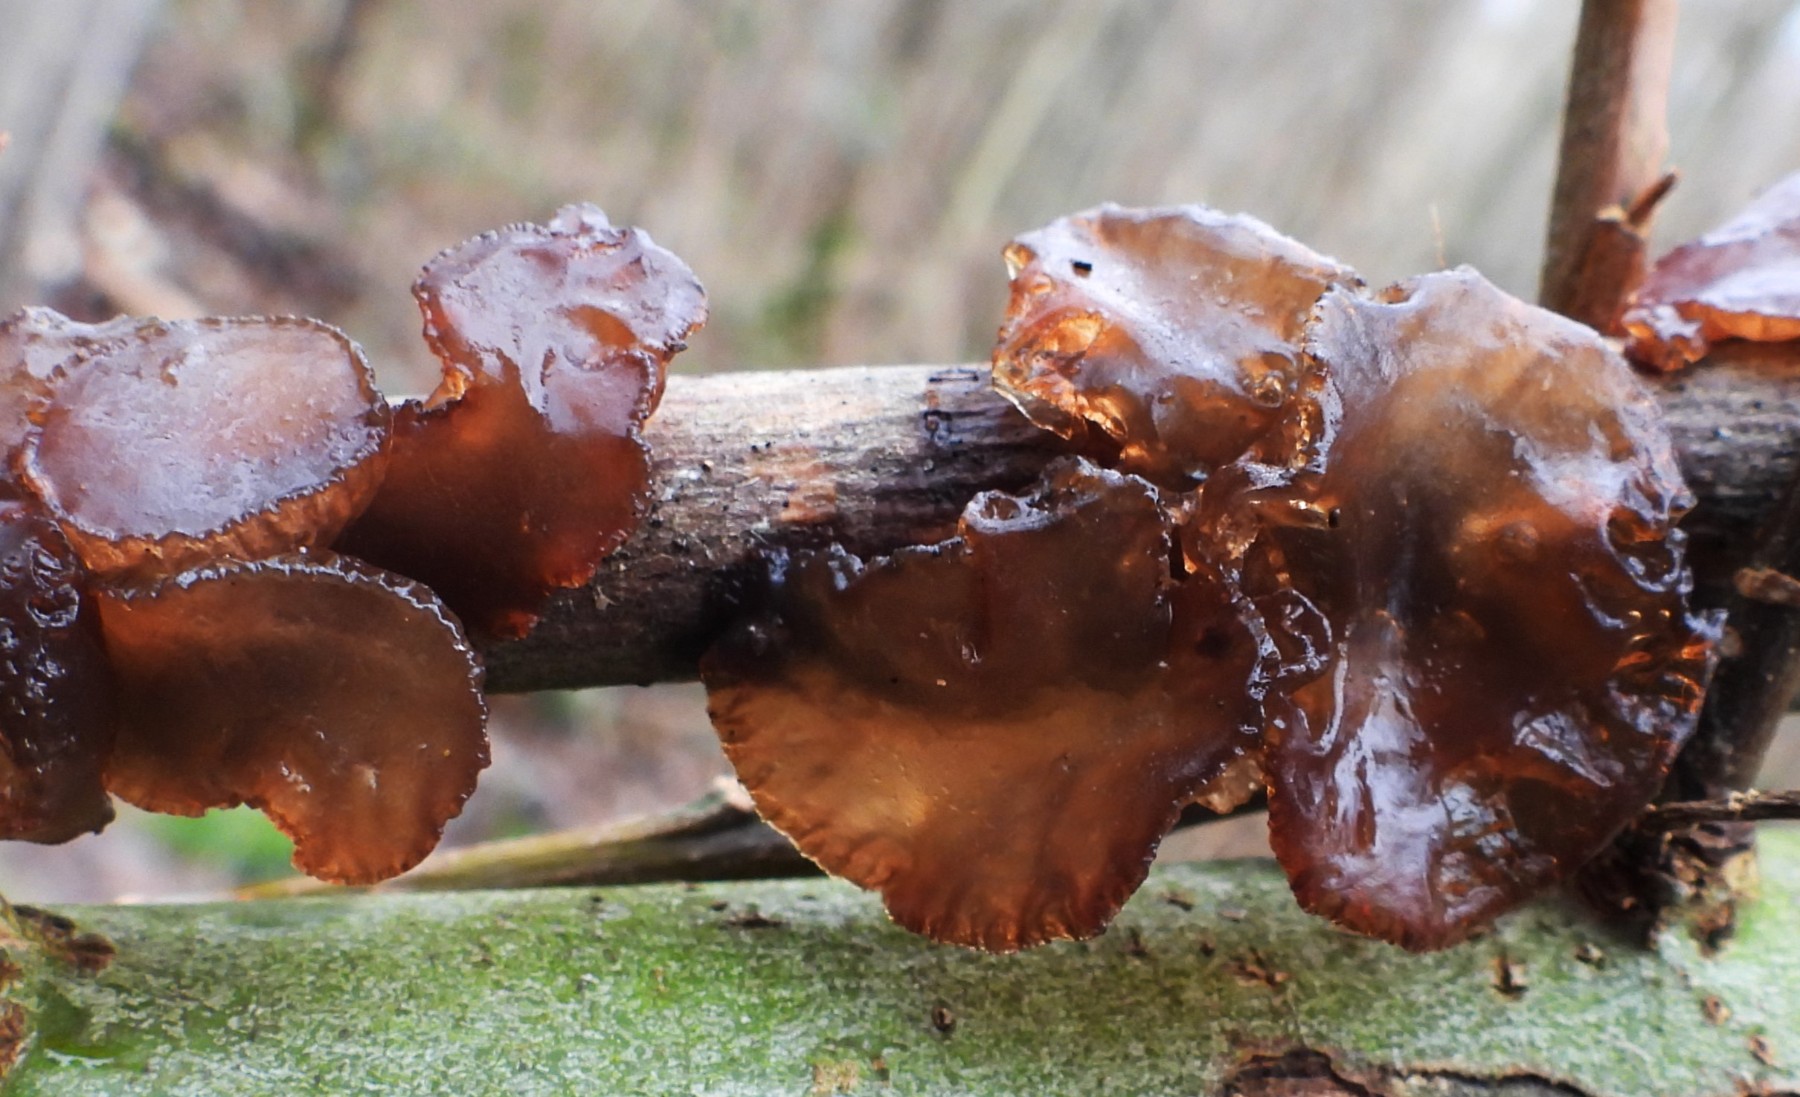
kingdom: Fungi
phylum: Basidiomycota
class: Agaricomycetes
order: Auriculariales
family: Auriculariaceae
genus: Exidia
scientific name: Exidia recisa
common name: pile-bævretop
